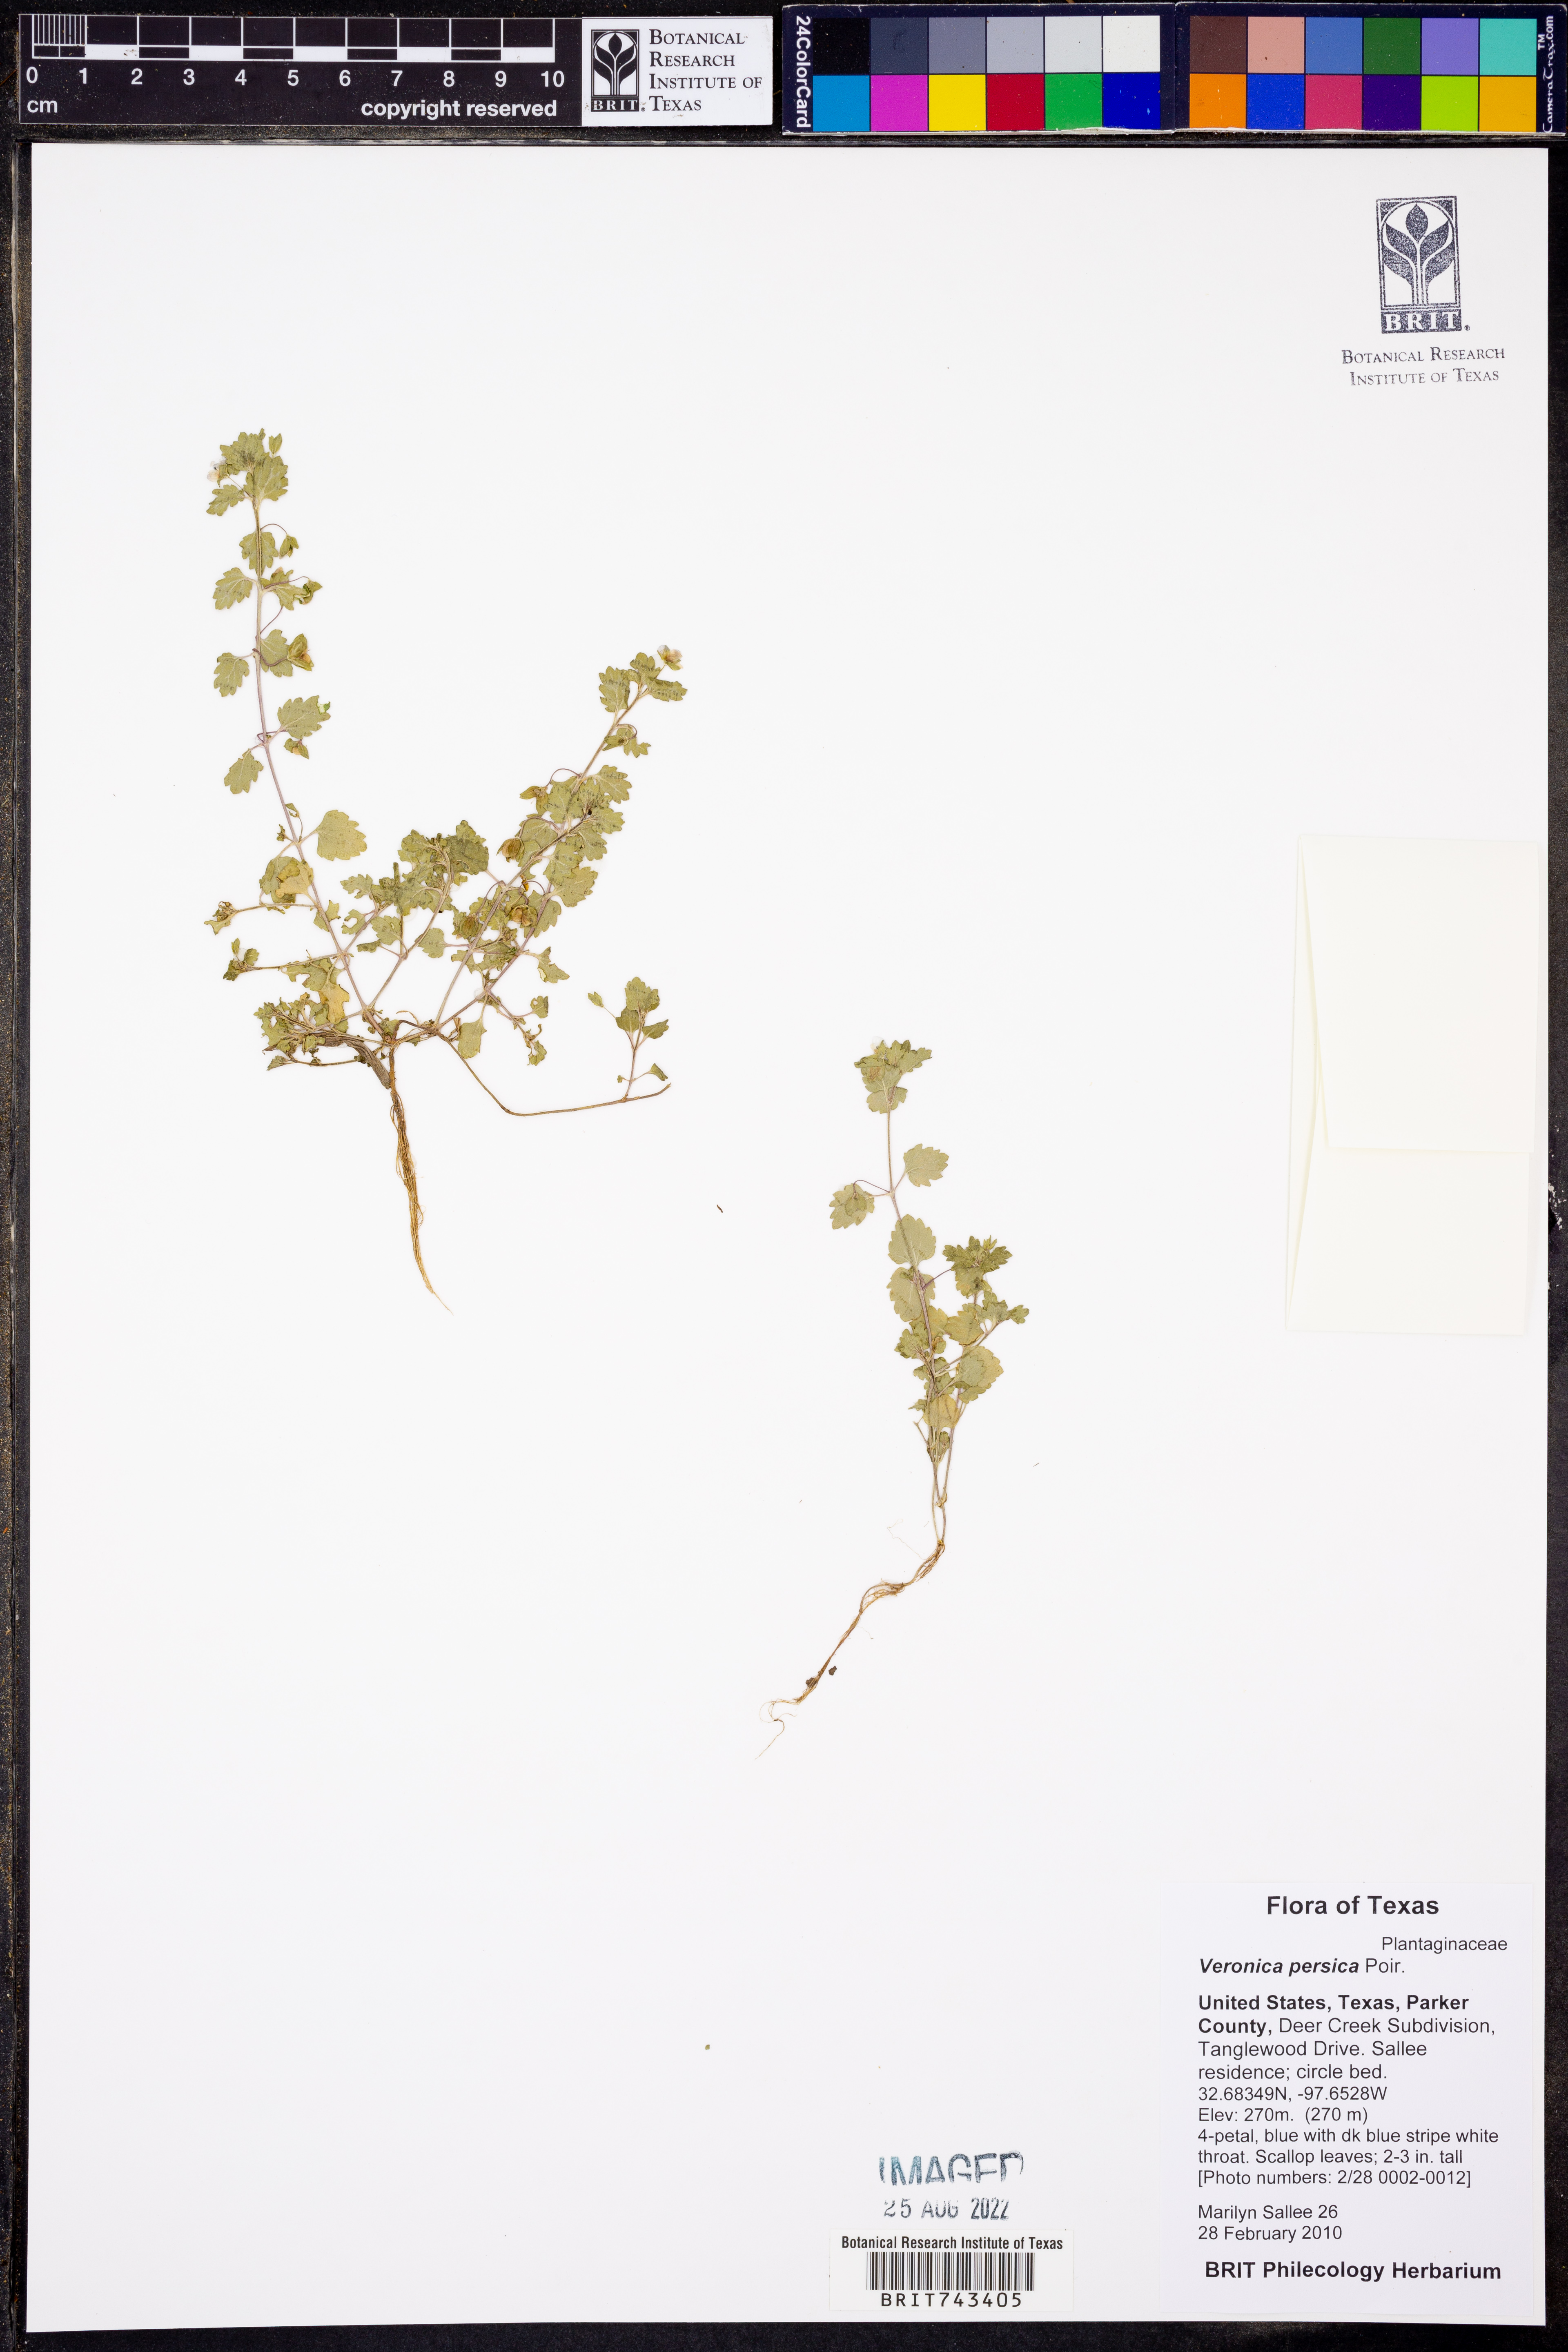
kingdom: Plantae
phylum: Tracheophyta
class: Magnoliopsida
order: Lamiales
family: Plantaginaceae
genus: Veronica
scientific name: Veronica persica
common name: Common field-speedwell
